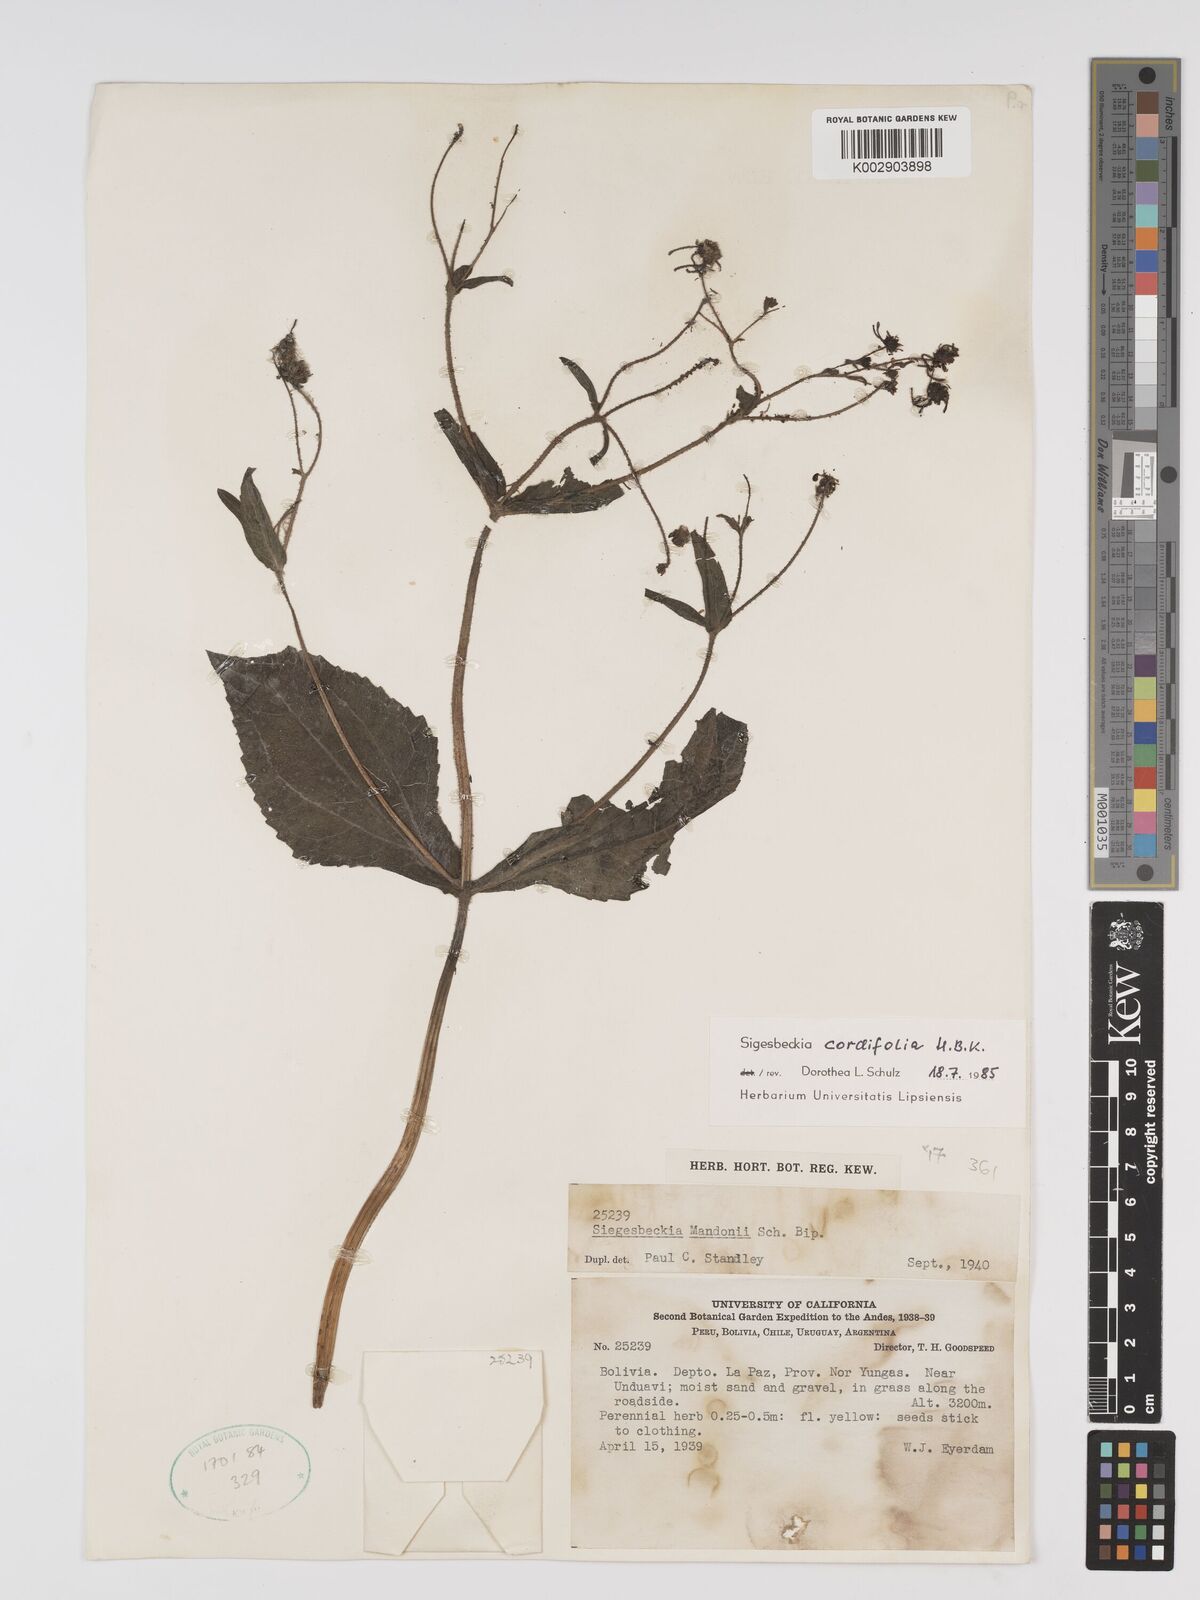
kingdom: Plantae
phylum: Tracheophyta
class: Magnoliopsida
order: Asterales
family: Asteraceae
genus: Sigesbeckia
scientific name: Sigesbeckia jorullensis
